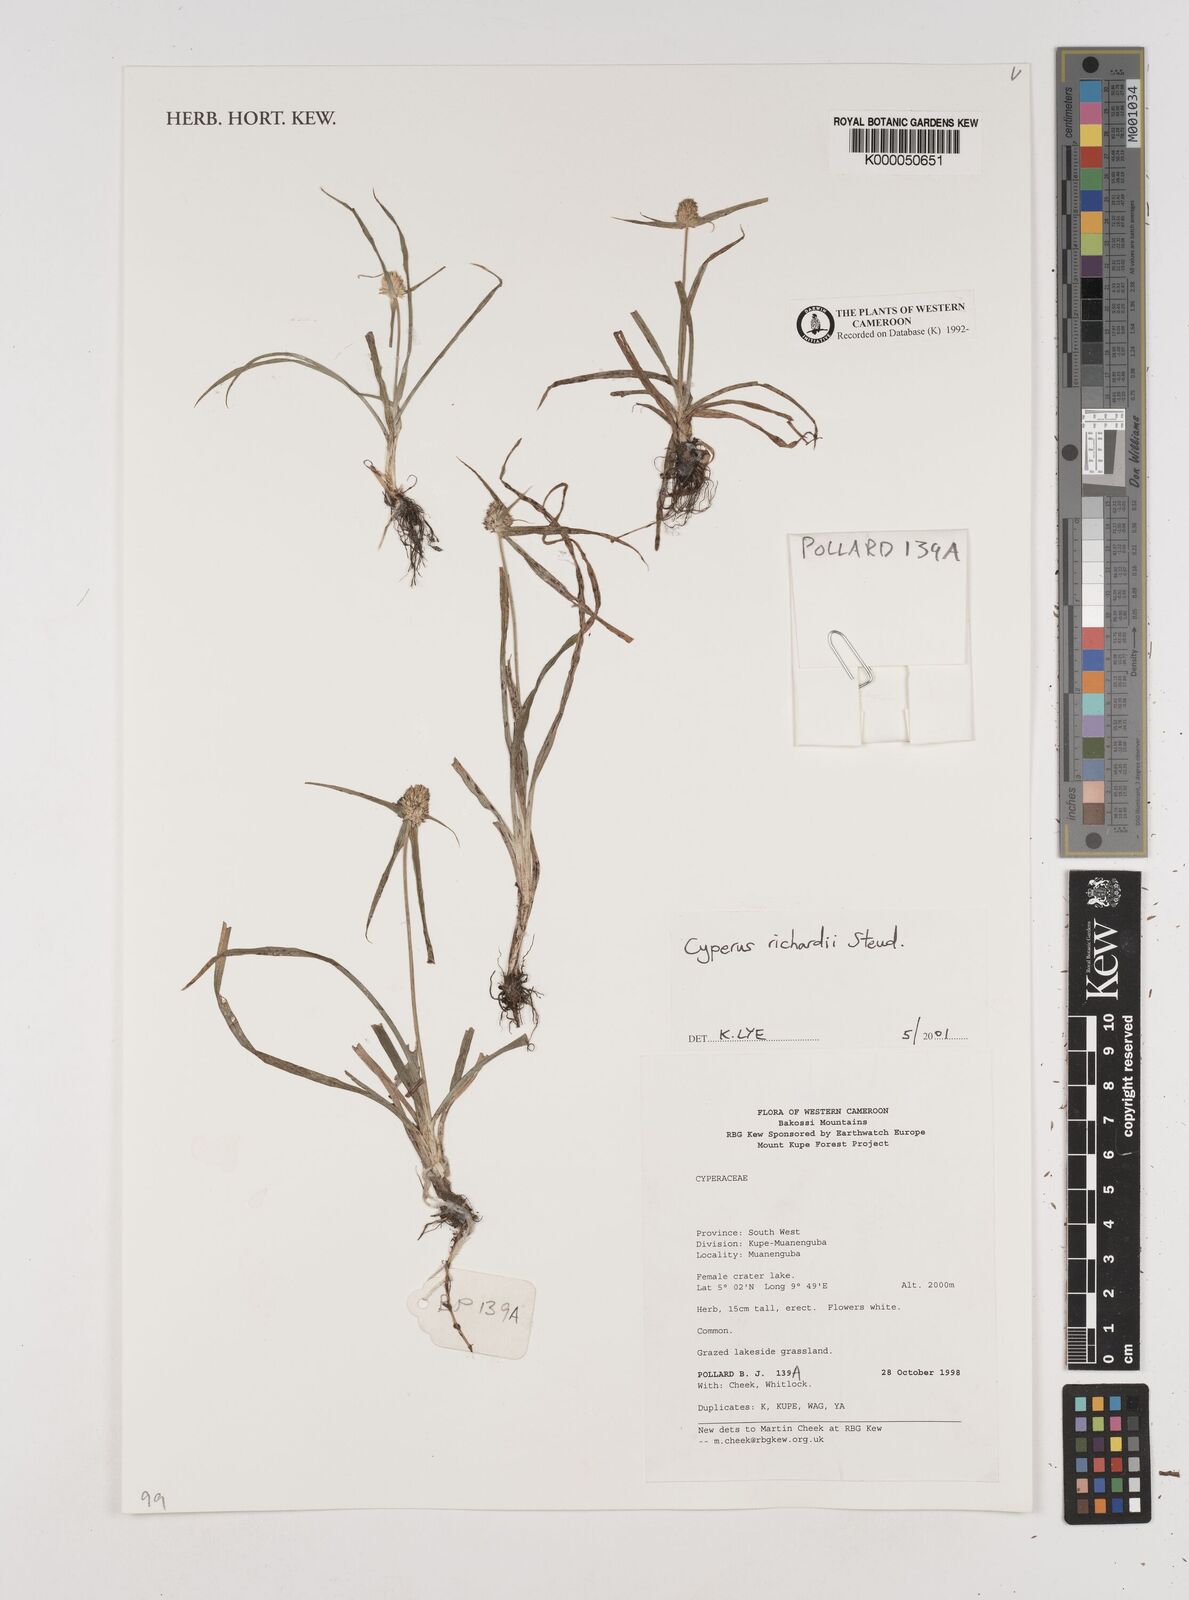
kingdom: Plantae
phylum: Tracheophyta
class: Liliopsida
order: Poales
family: Cyperaceae
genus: Cyperus
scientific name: Cyperus richardii
